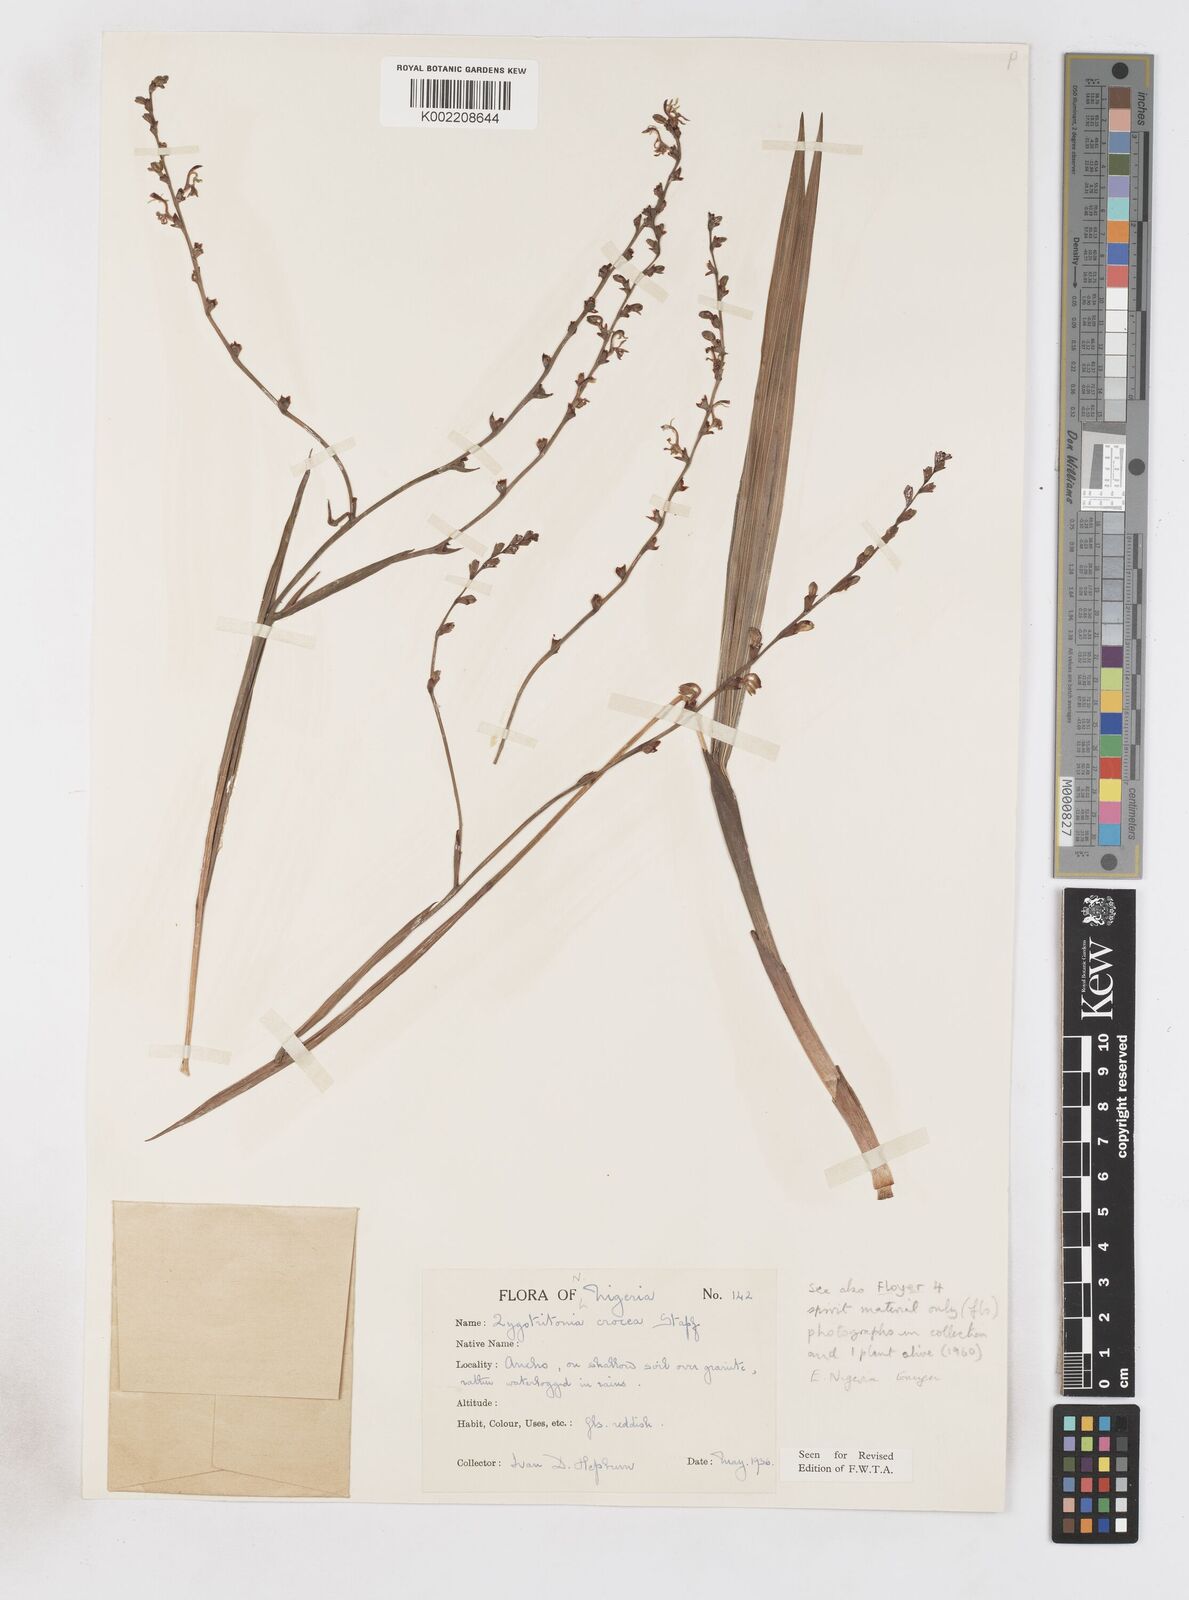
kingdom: Plantae
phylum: Tracheophyta
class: Liliopsida
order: Asparagales
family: Iridaceae
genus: Savannosiphon
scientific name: Savannosiphon
